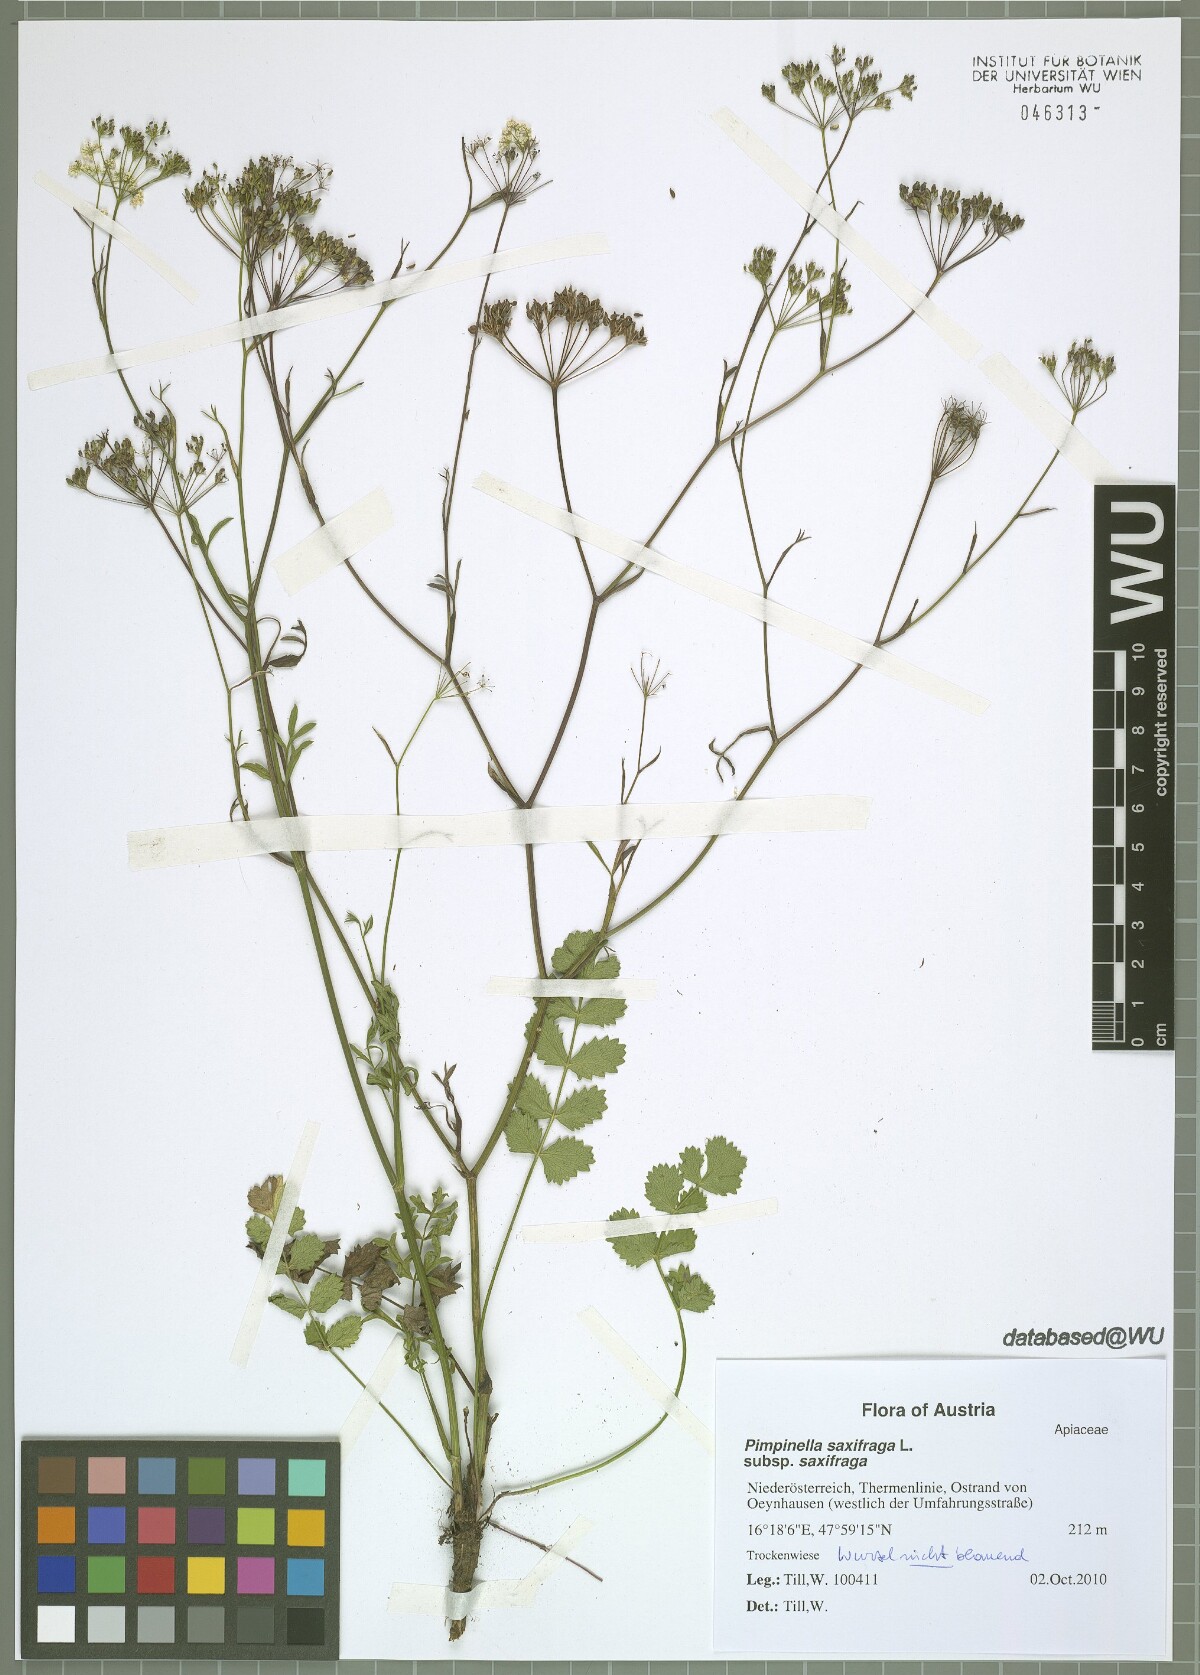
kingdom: Plantae
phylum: Tracheophyta
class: Magnoliopsida
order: Apiales
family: Apiaceae
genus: Pimpinella
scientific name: Pimpinella saxifraga
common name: Burnet-saxifrage
